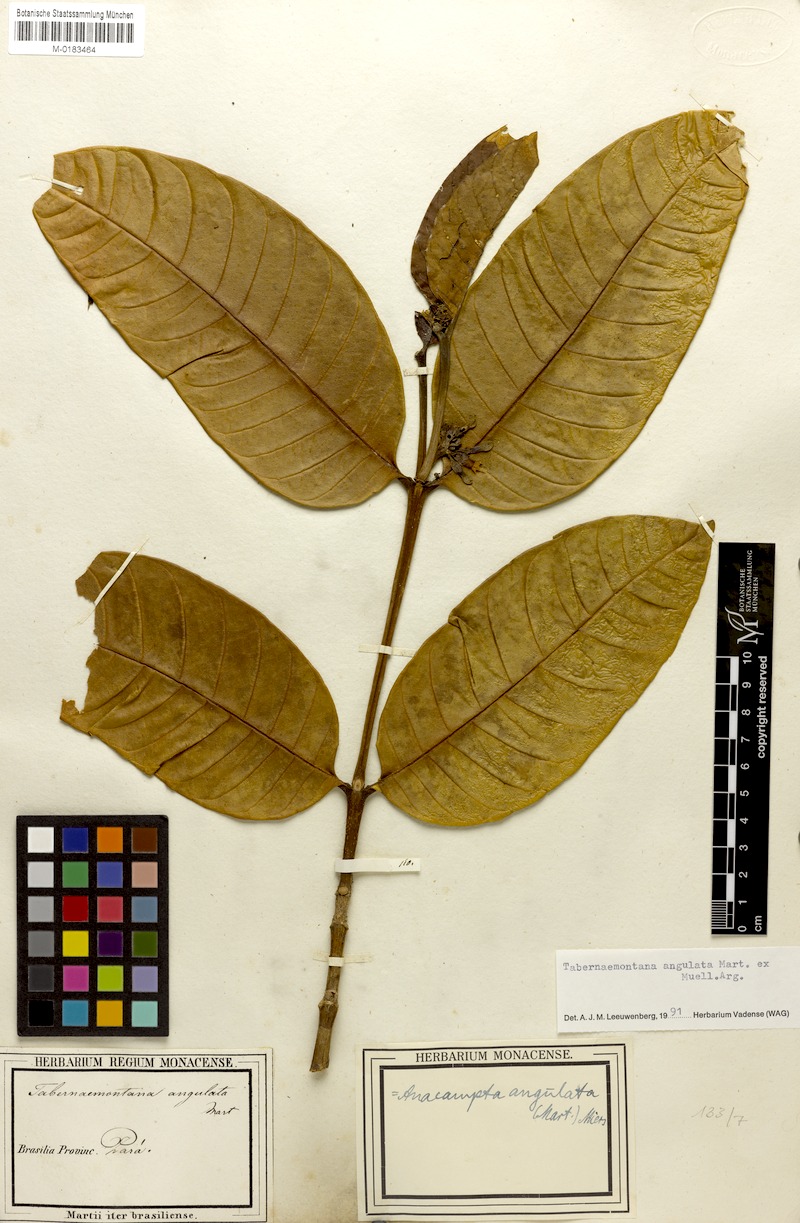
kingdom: Plantae
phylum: Tracheophyta
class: Magnoliopsida
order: Gentianales
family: Apocynaceae
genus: Tabernaemontana
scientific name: Tabernaemontana angulata
